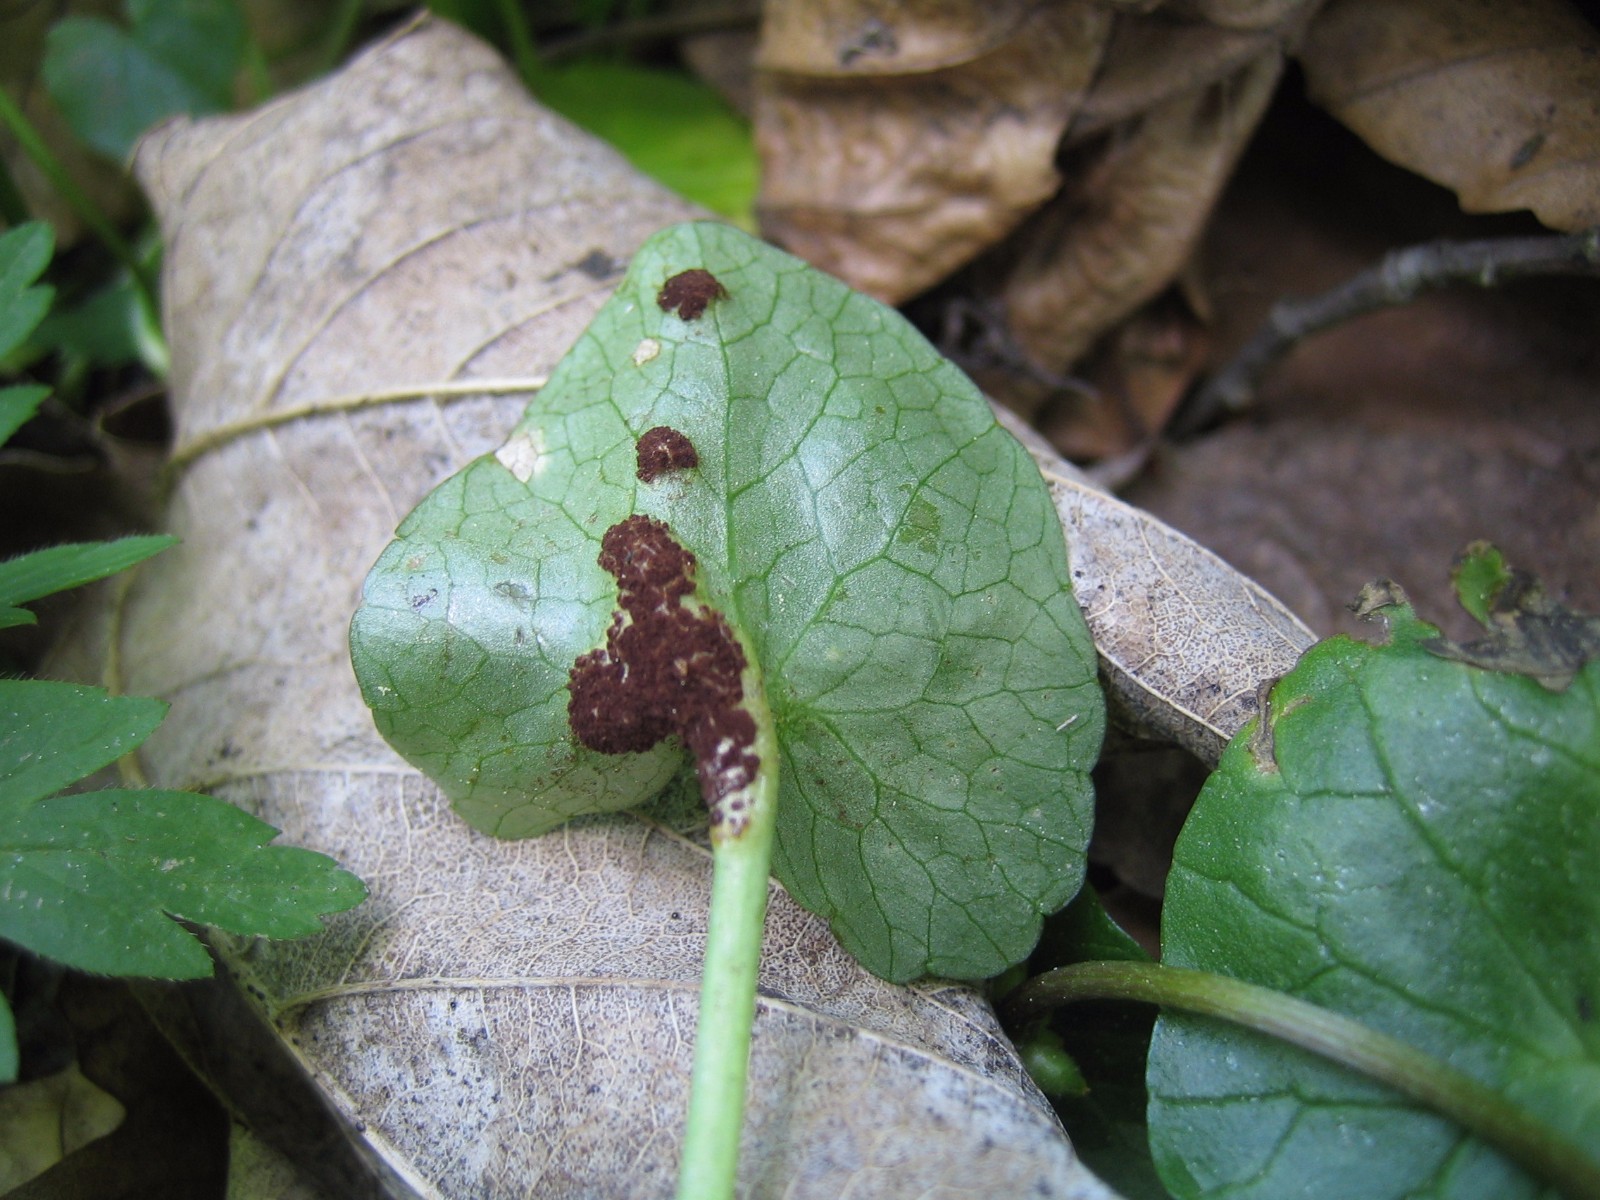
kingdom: Fungi
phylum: Basidiomycota
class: Pucciniomycetes
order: Pucciniales
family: Pucciniaceae
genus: Uromyces
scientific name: Uromyces ficariae
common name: vorterod-encellerust
